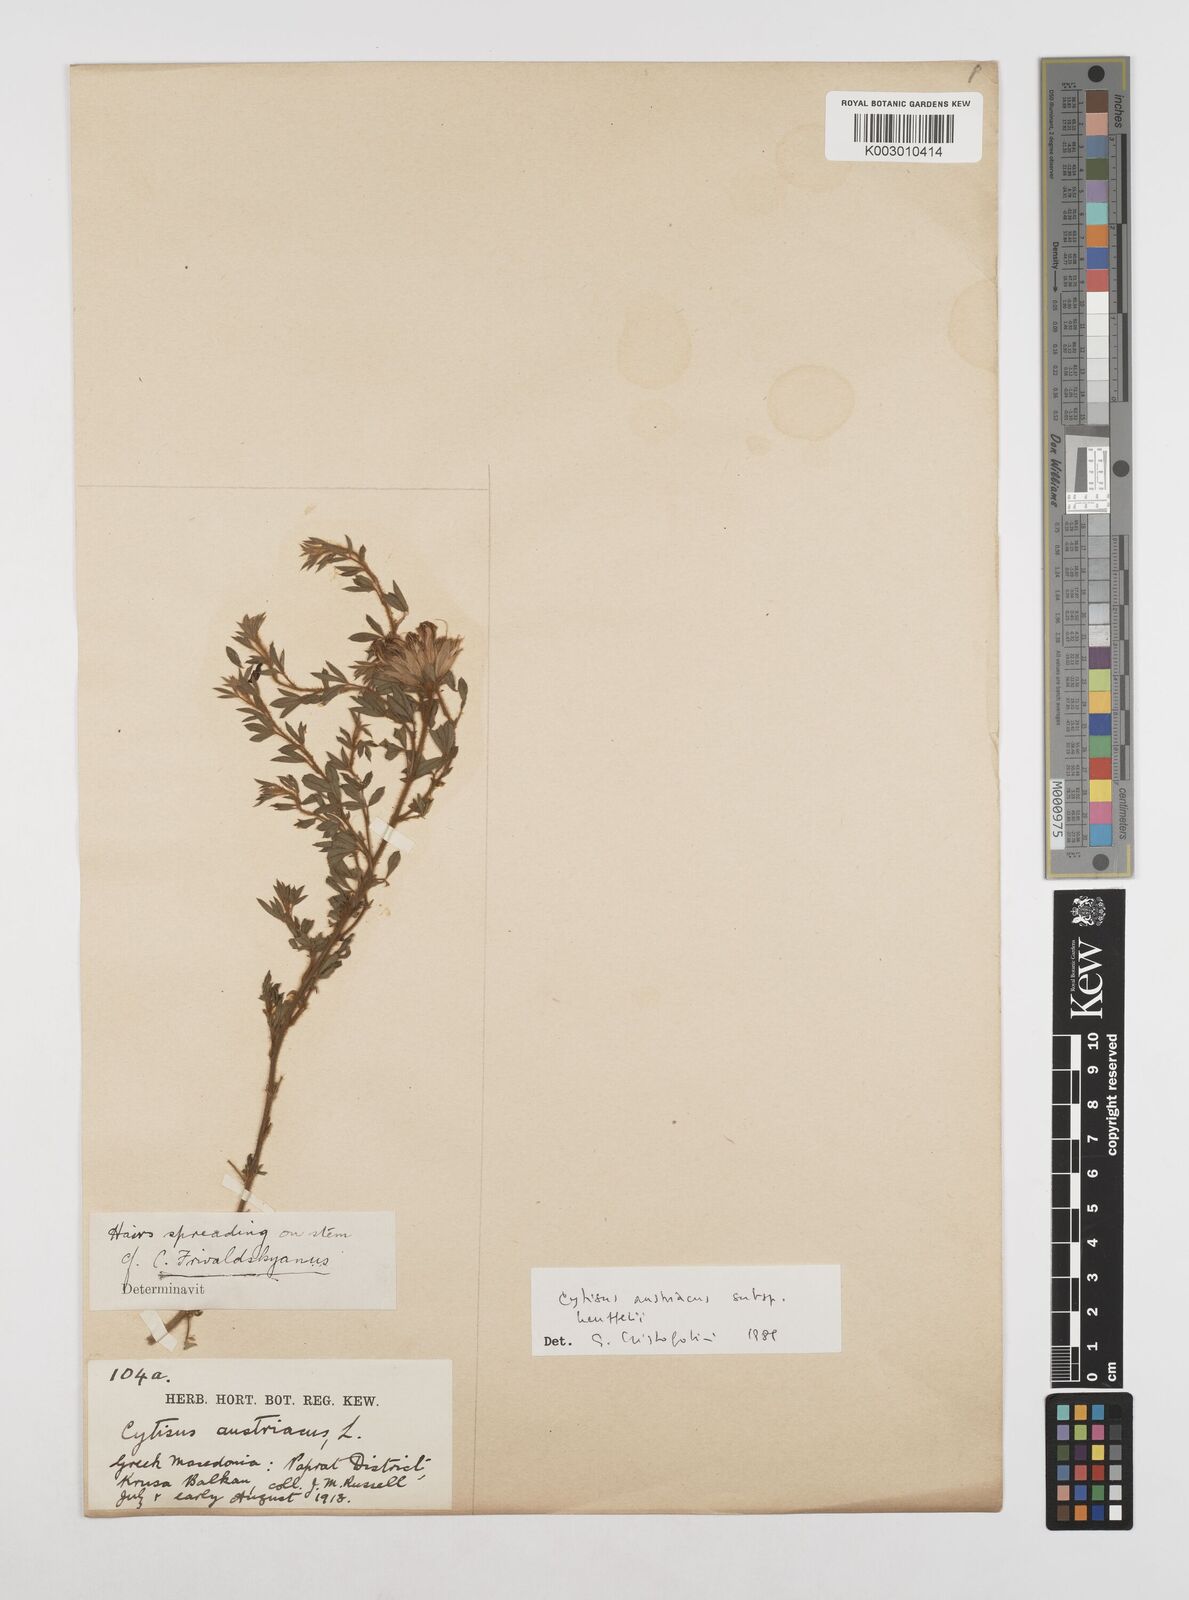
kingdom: Plantae
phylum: Tracheophyta
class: Magnoliopsida
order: Fabales
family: Fabaceae
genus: Chamaecytisus
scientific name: Chamaecytisus austriacus
